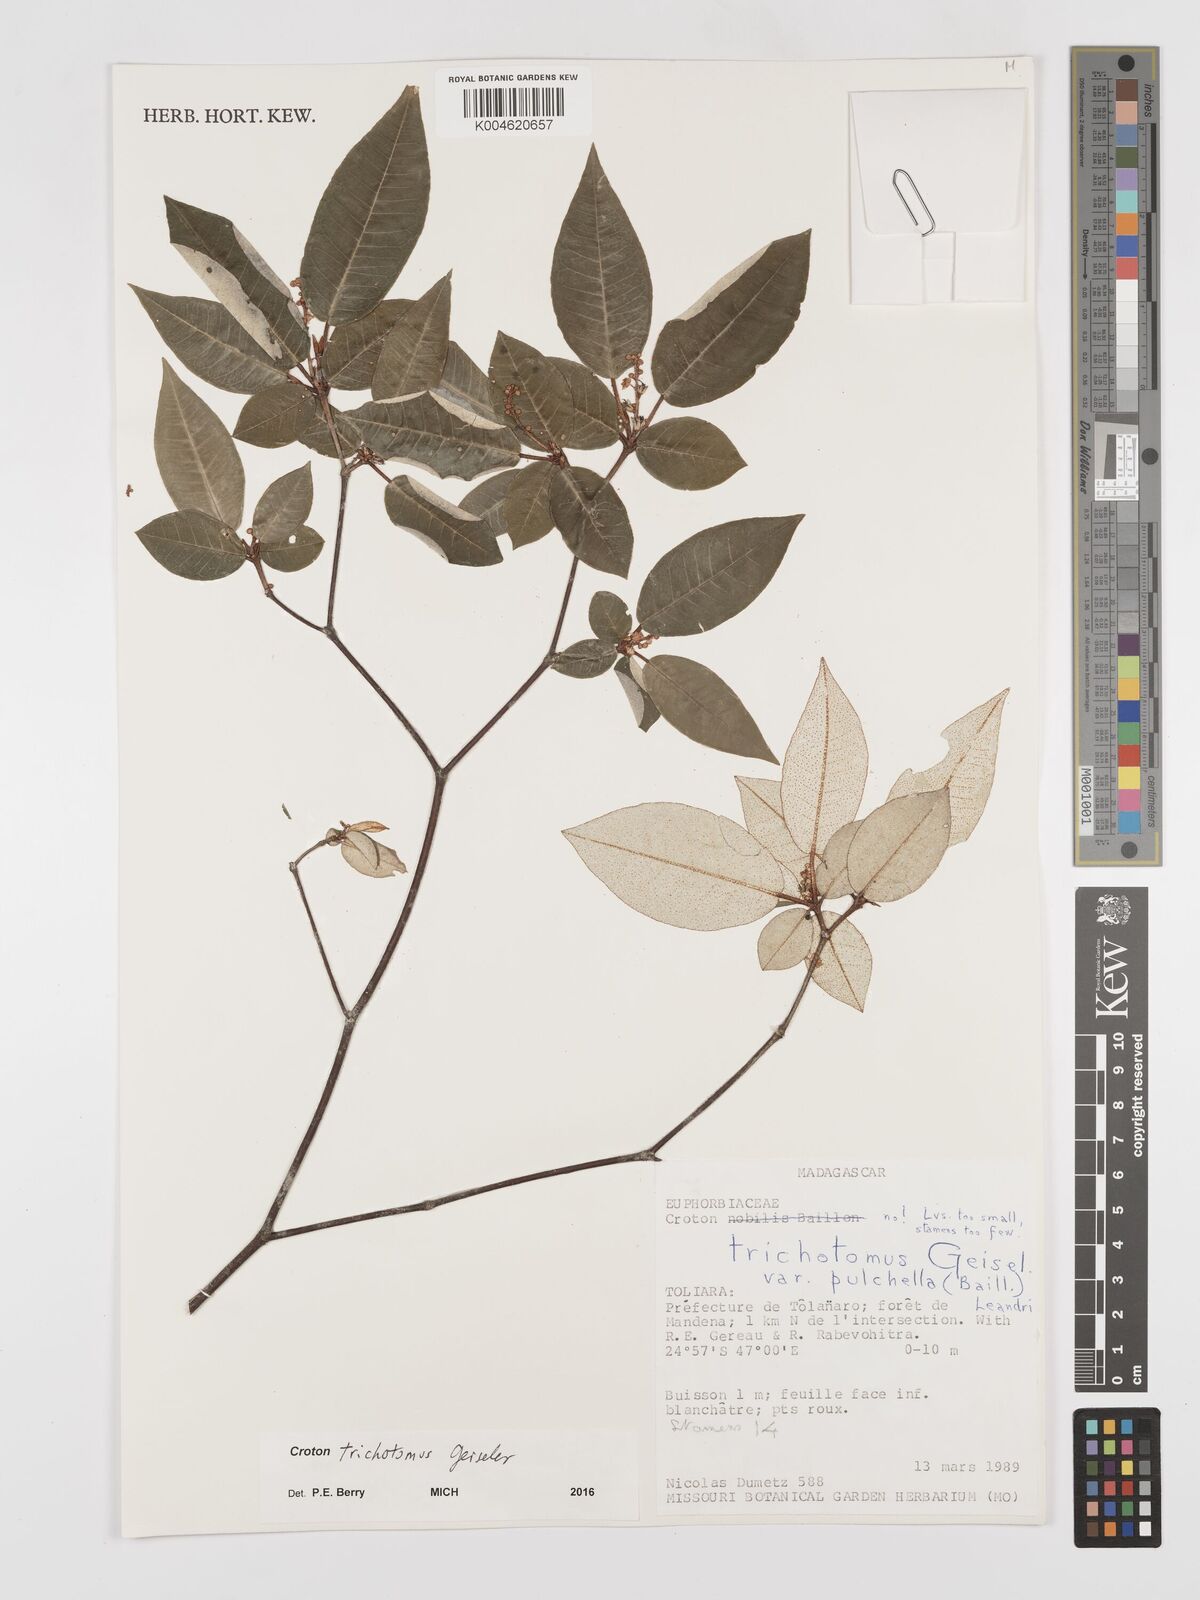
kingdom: Plantae
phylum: Tracheophyta
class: Magnoliopsida
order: Malpighiales
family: Euphorbiaceae
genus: Croton
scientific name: Croton trichotomus
